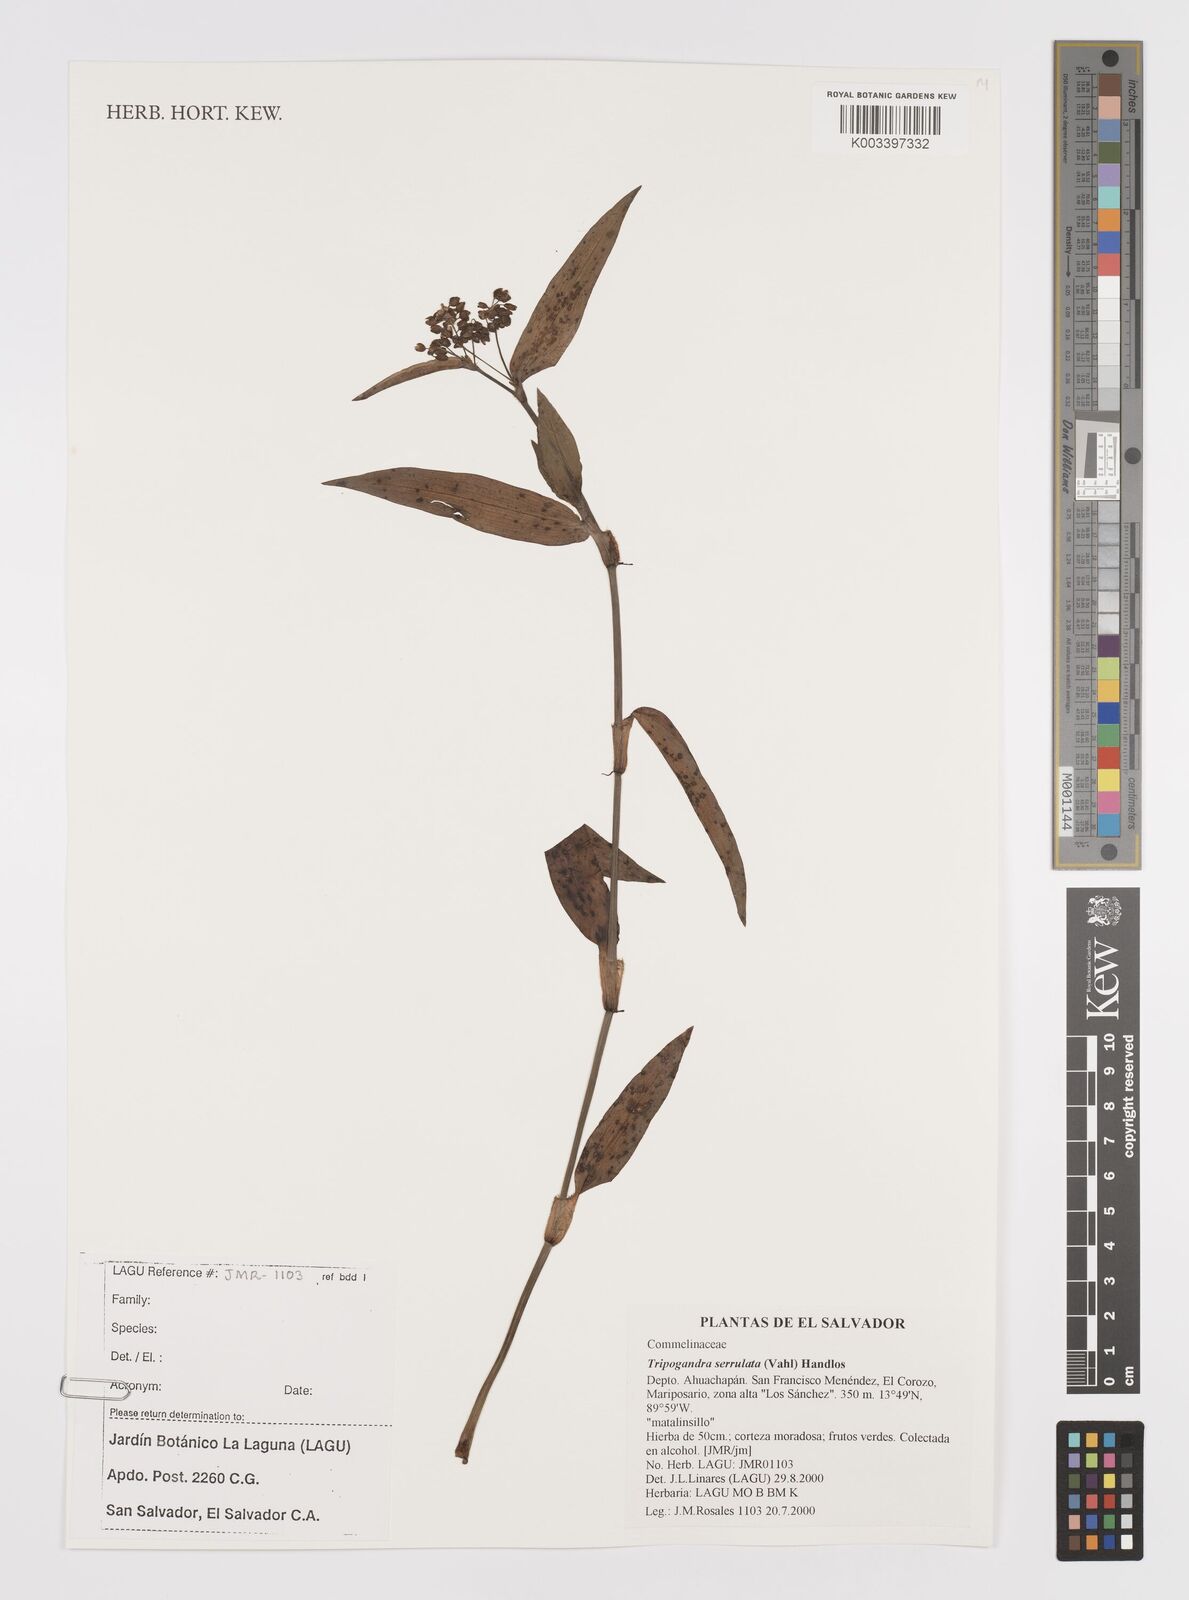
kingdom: Plantae
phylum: Tracheophyta
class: Liliopsida
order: Commelinales
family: Commelinaceae
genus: Callisia
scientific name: Callisia serrulata
